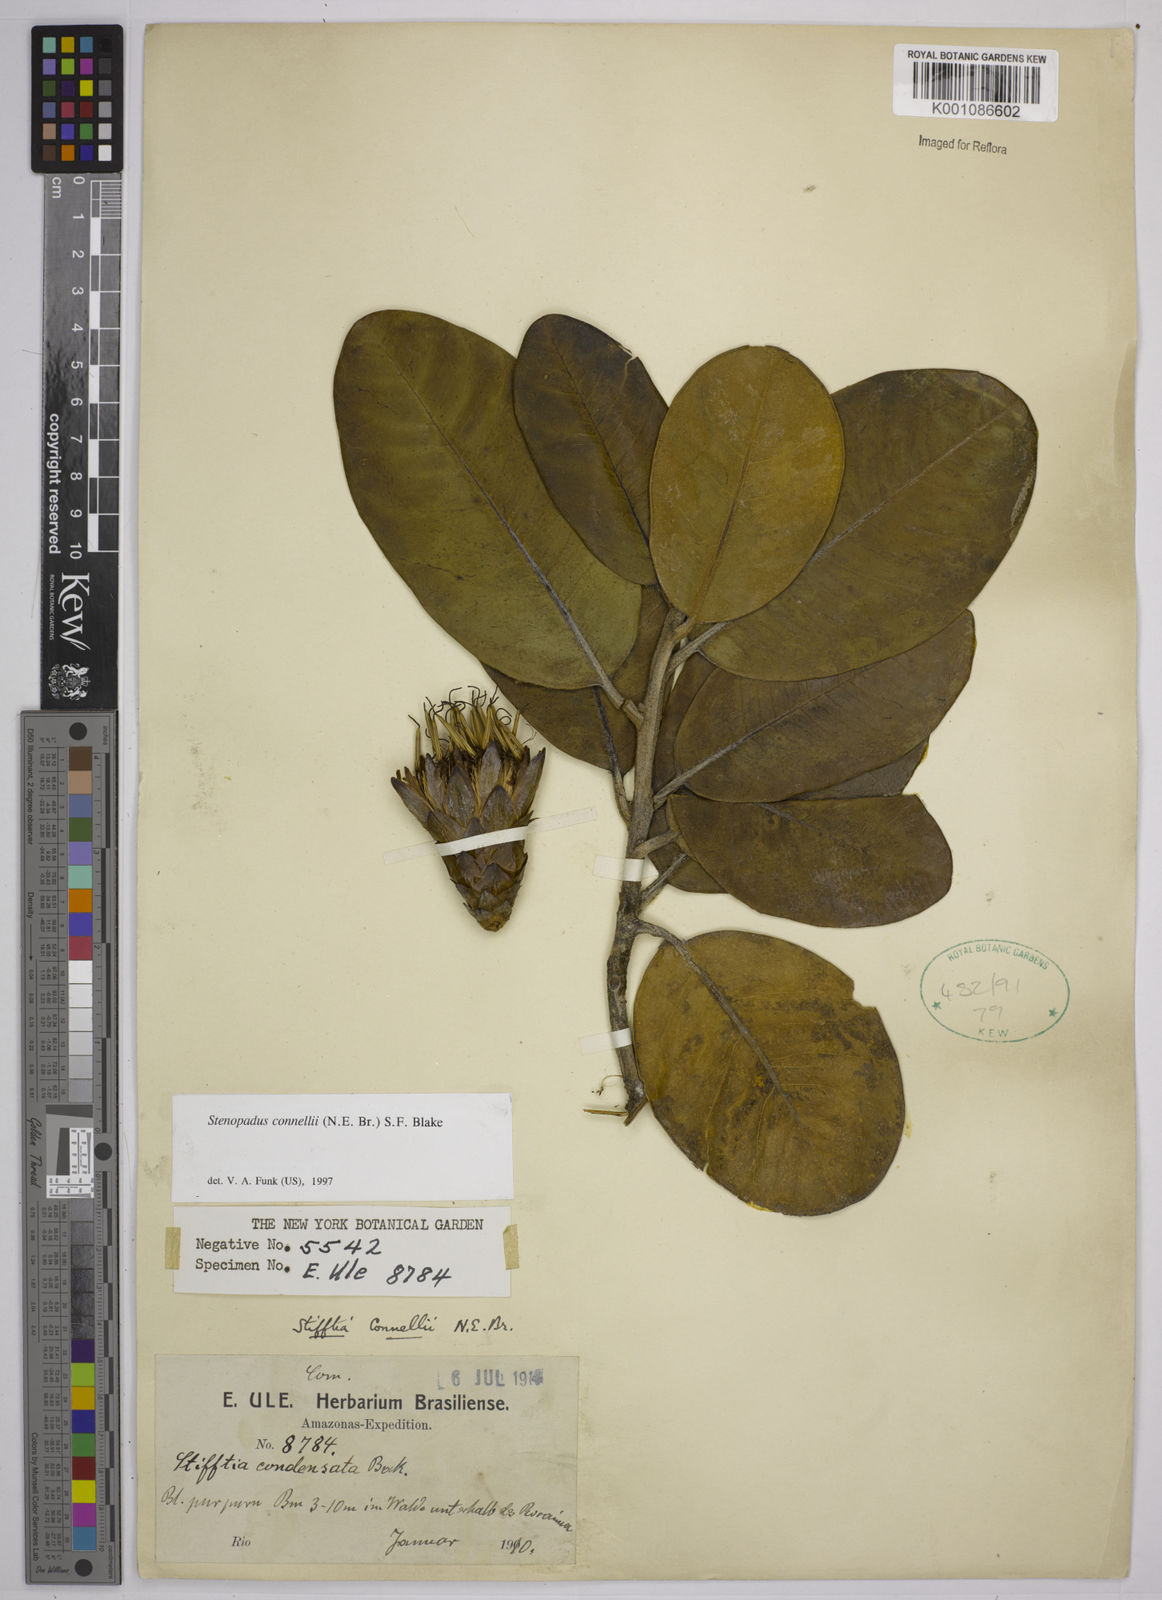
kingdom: Plantae
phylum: Tracheophyta
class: Magnoliopsida
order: Asterales
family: Asteraceae
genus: Stenopadus
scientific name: Stenopadus connellii
